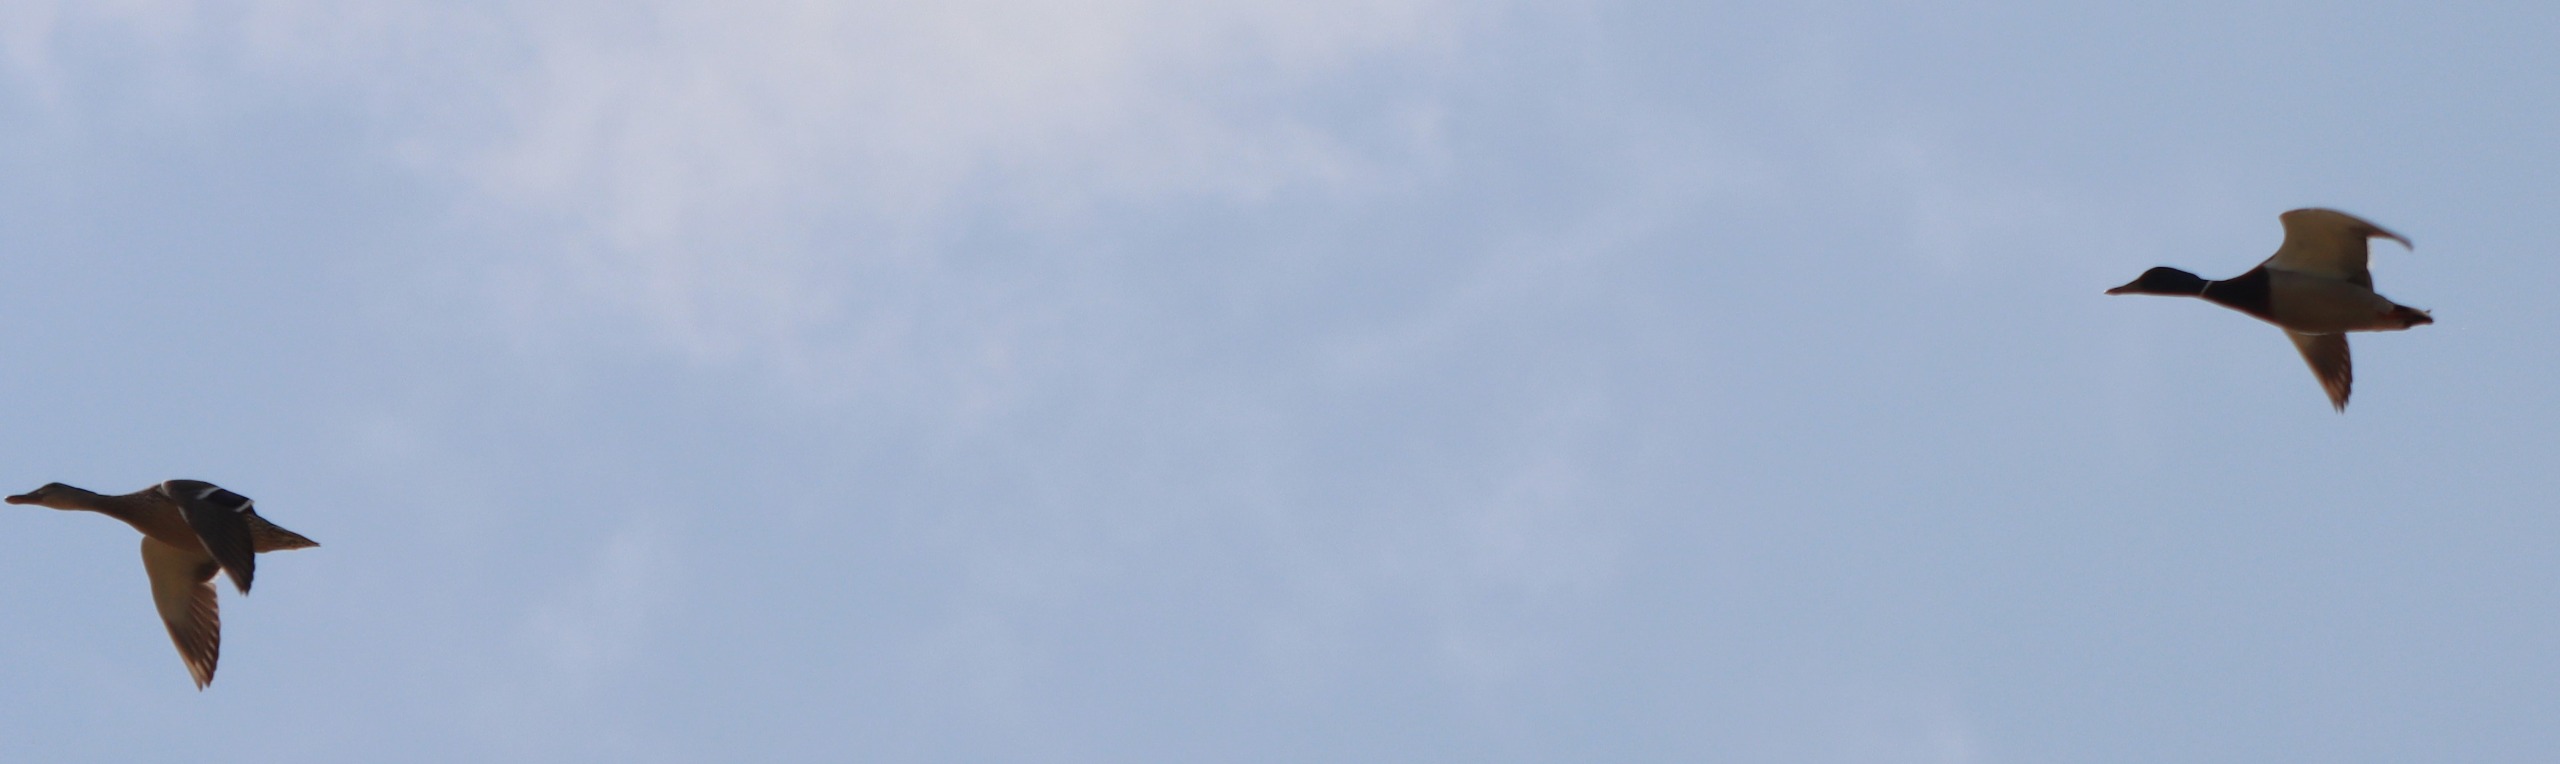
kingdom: Animalia
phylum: Chordata
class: Aves
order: Anseriformes
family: Anatidae
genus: Anas
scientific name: Anas platyrhynchos
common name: Gråand
